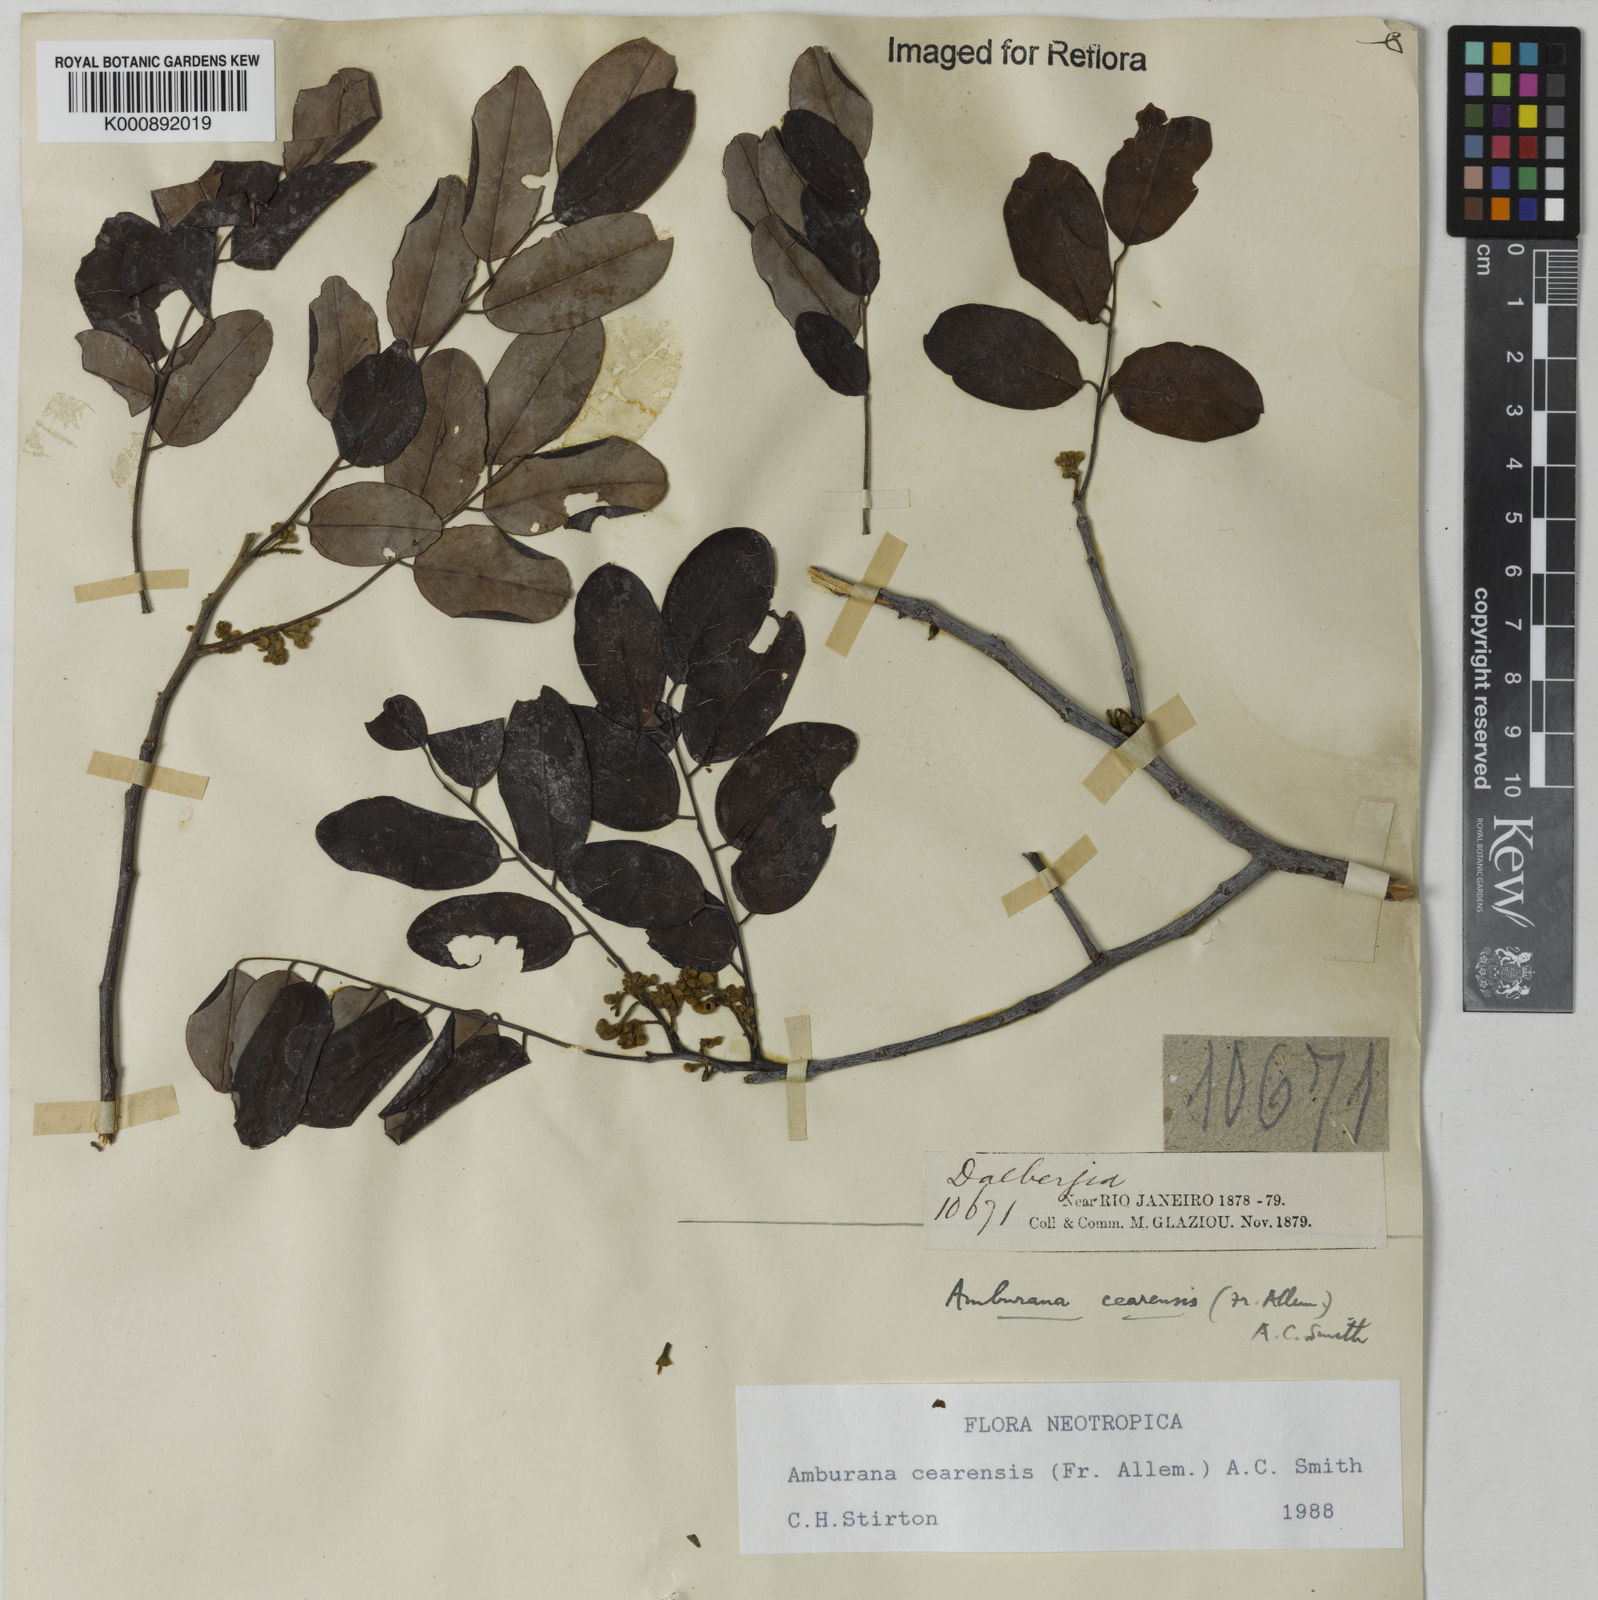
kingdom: Plantae
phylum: Tracheophyta
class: Magnoliopsida
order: Fabales
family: Fabaceae
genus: Amburana
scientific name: Amburana
